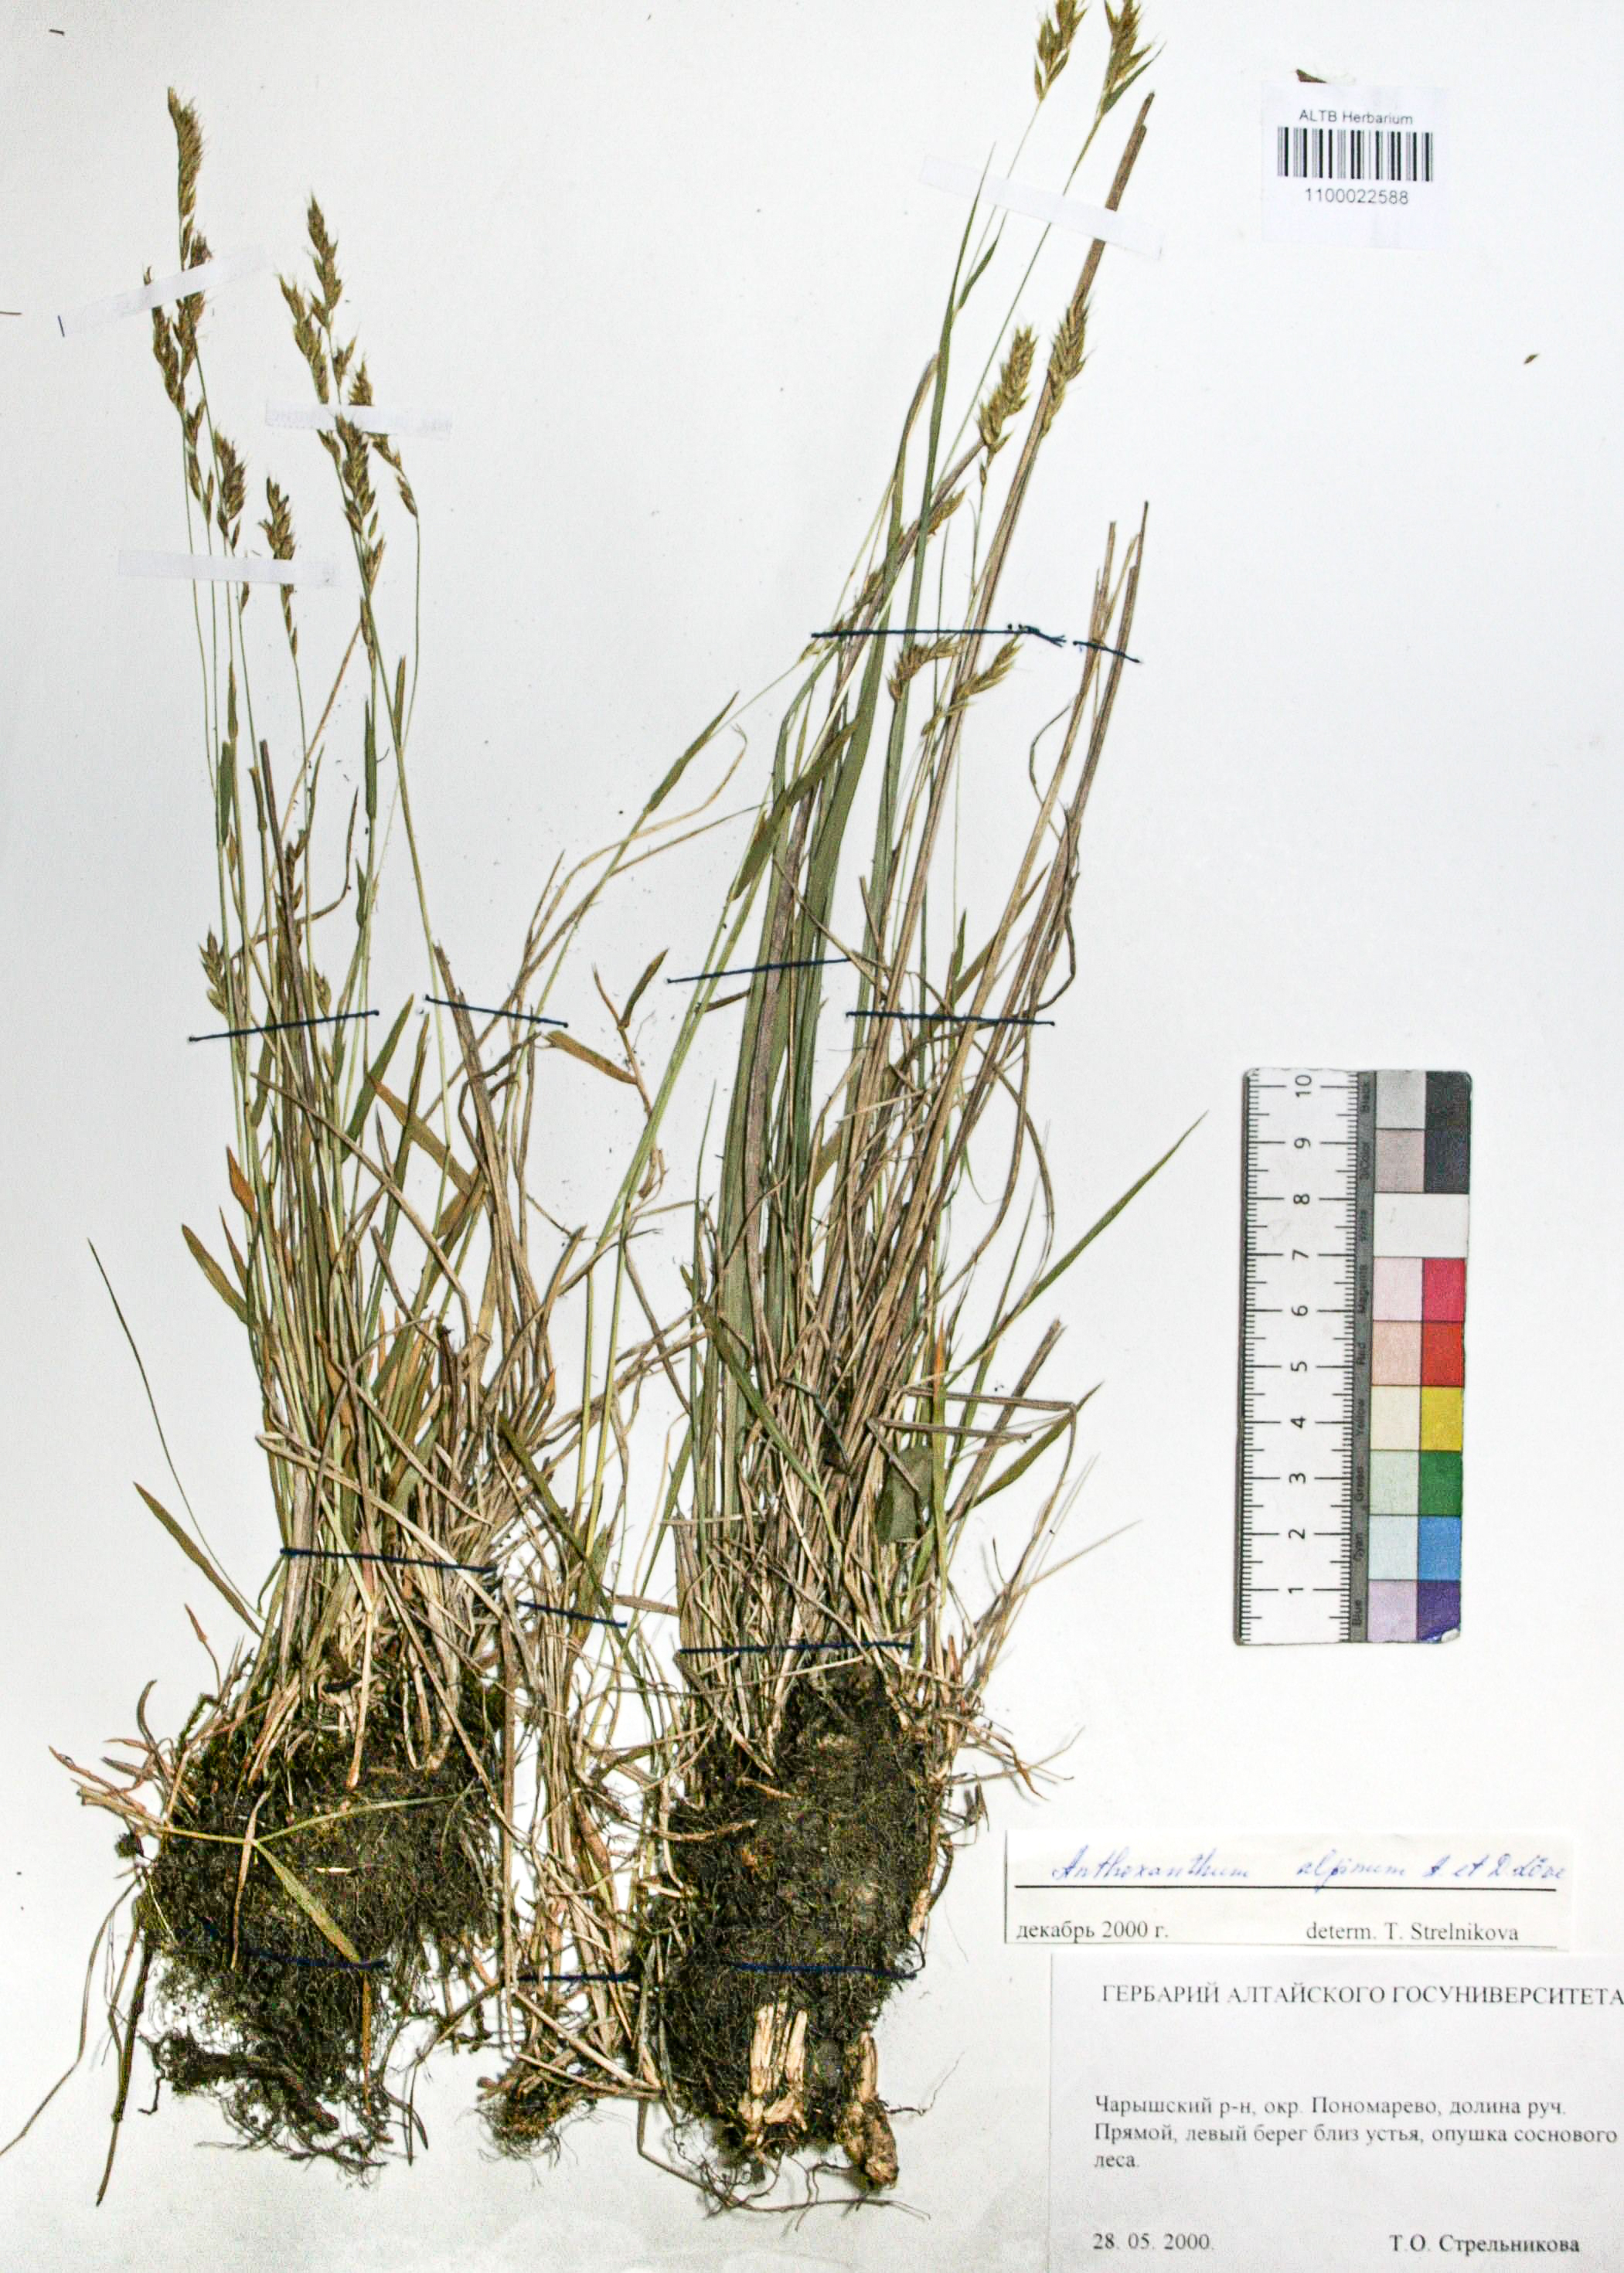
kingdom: Plantae
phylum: Tracheophyta
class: Liliopsida
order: Poales
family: Poaceae
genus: Anthoxanthum
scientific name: Anthoxanthum nipponicum
